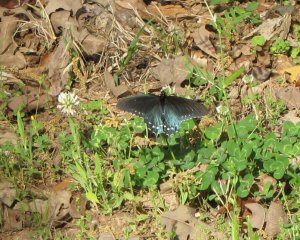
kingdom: Animalia
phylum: Arthropoda
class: Insecta
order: Lepidoptera
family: Papilionidae
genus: Battus
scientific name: Battus philenor
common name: Pipevine Swallowtail
